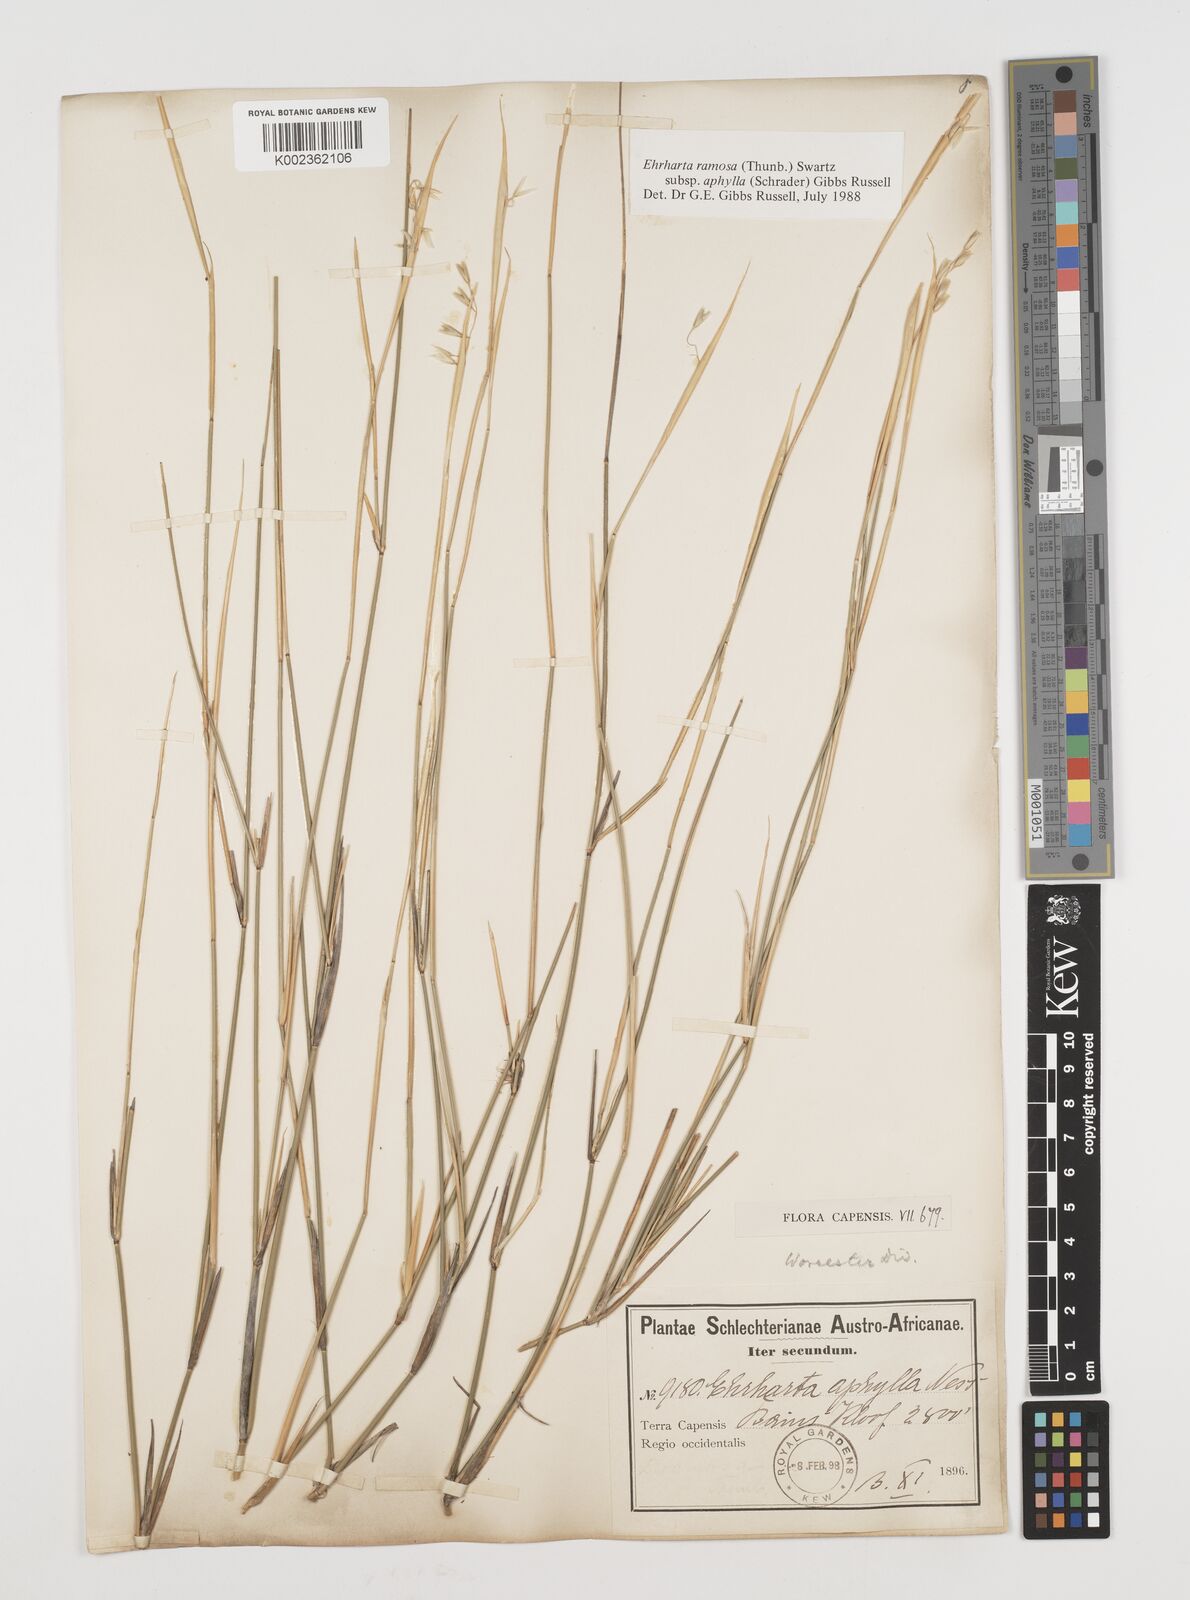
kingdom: Plantae
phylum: Tracheophyta
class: Liliopsida
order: Poales
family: Poaceae
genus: Ehrharta
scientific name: Ehrharta digyna
